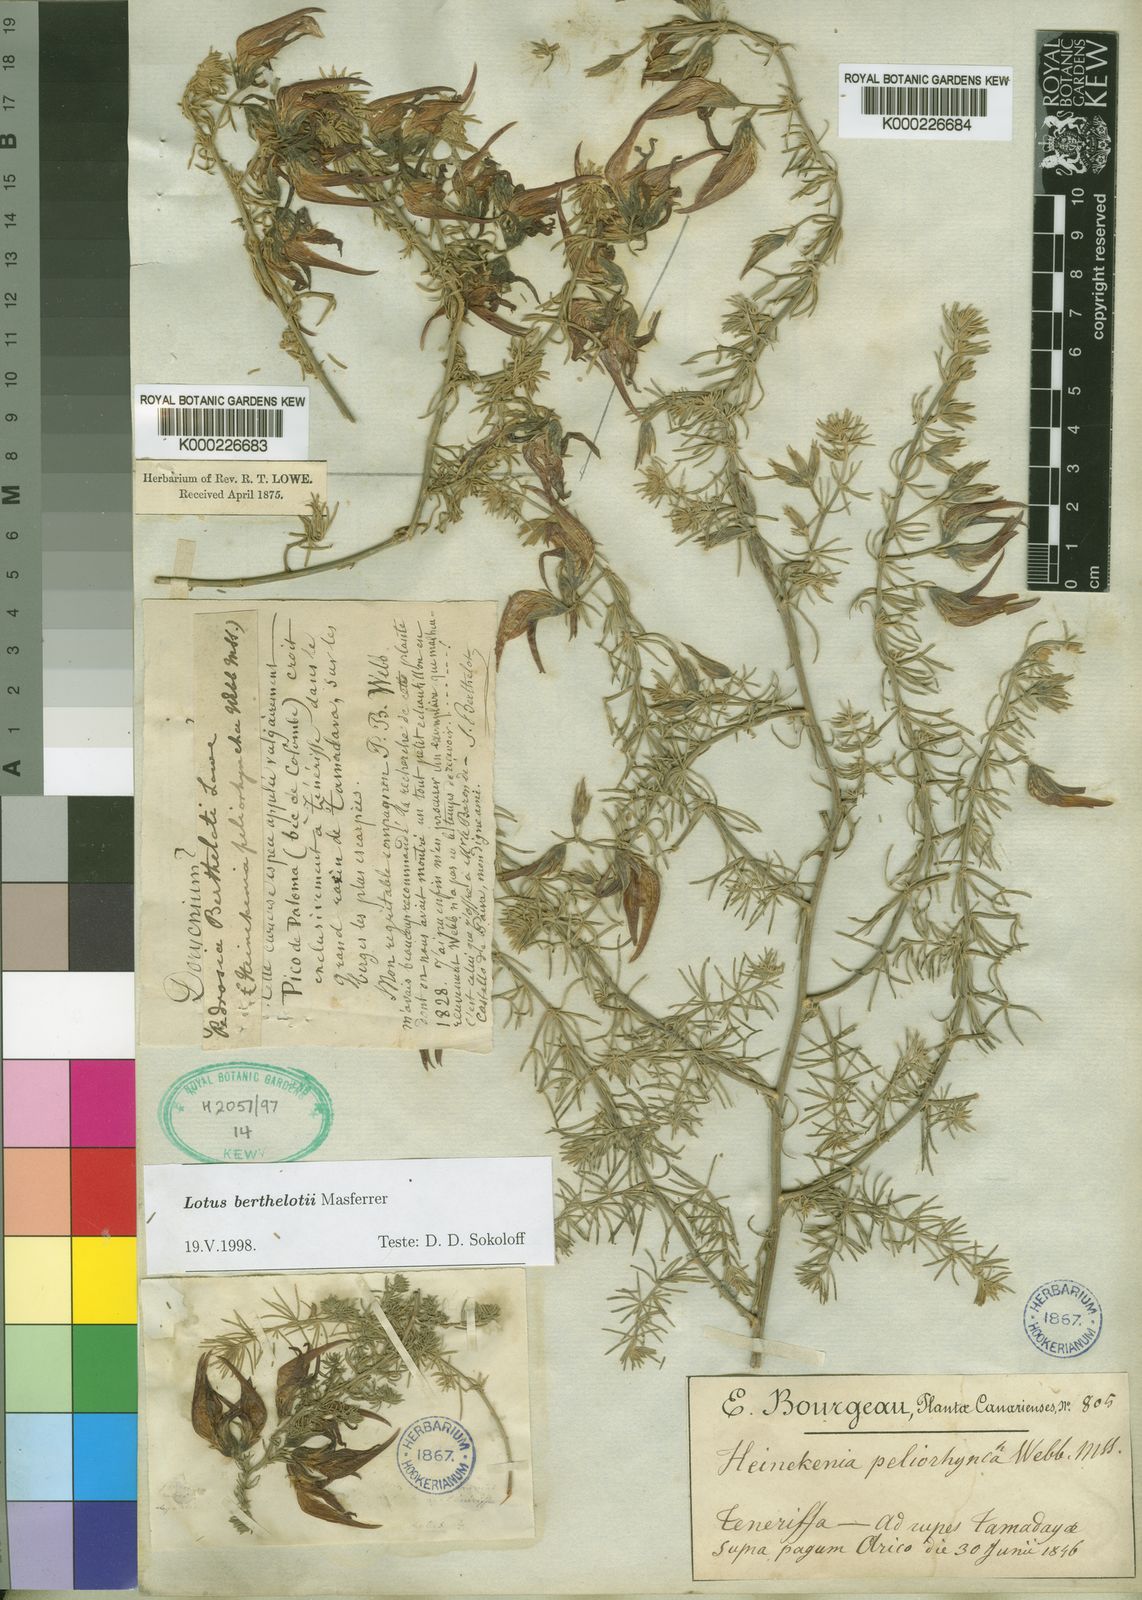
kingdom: Plantae
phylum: Tracheophyta
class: Magnoliopsida
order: Fabales
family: Fabaceae
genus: Lotus
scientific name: Lotus berthelotii
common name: Coralgem
